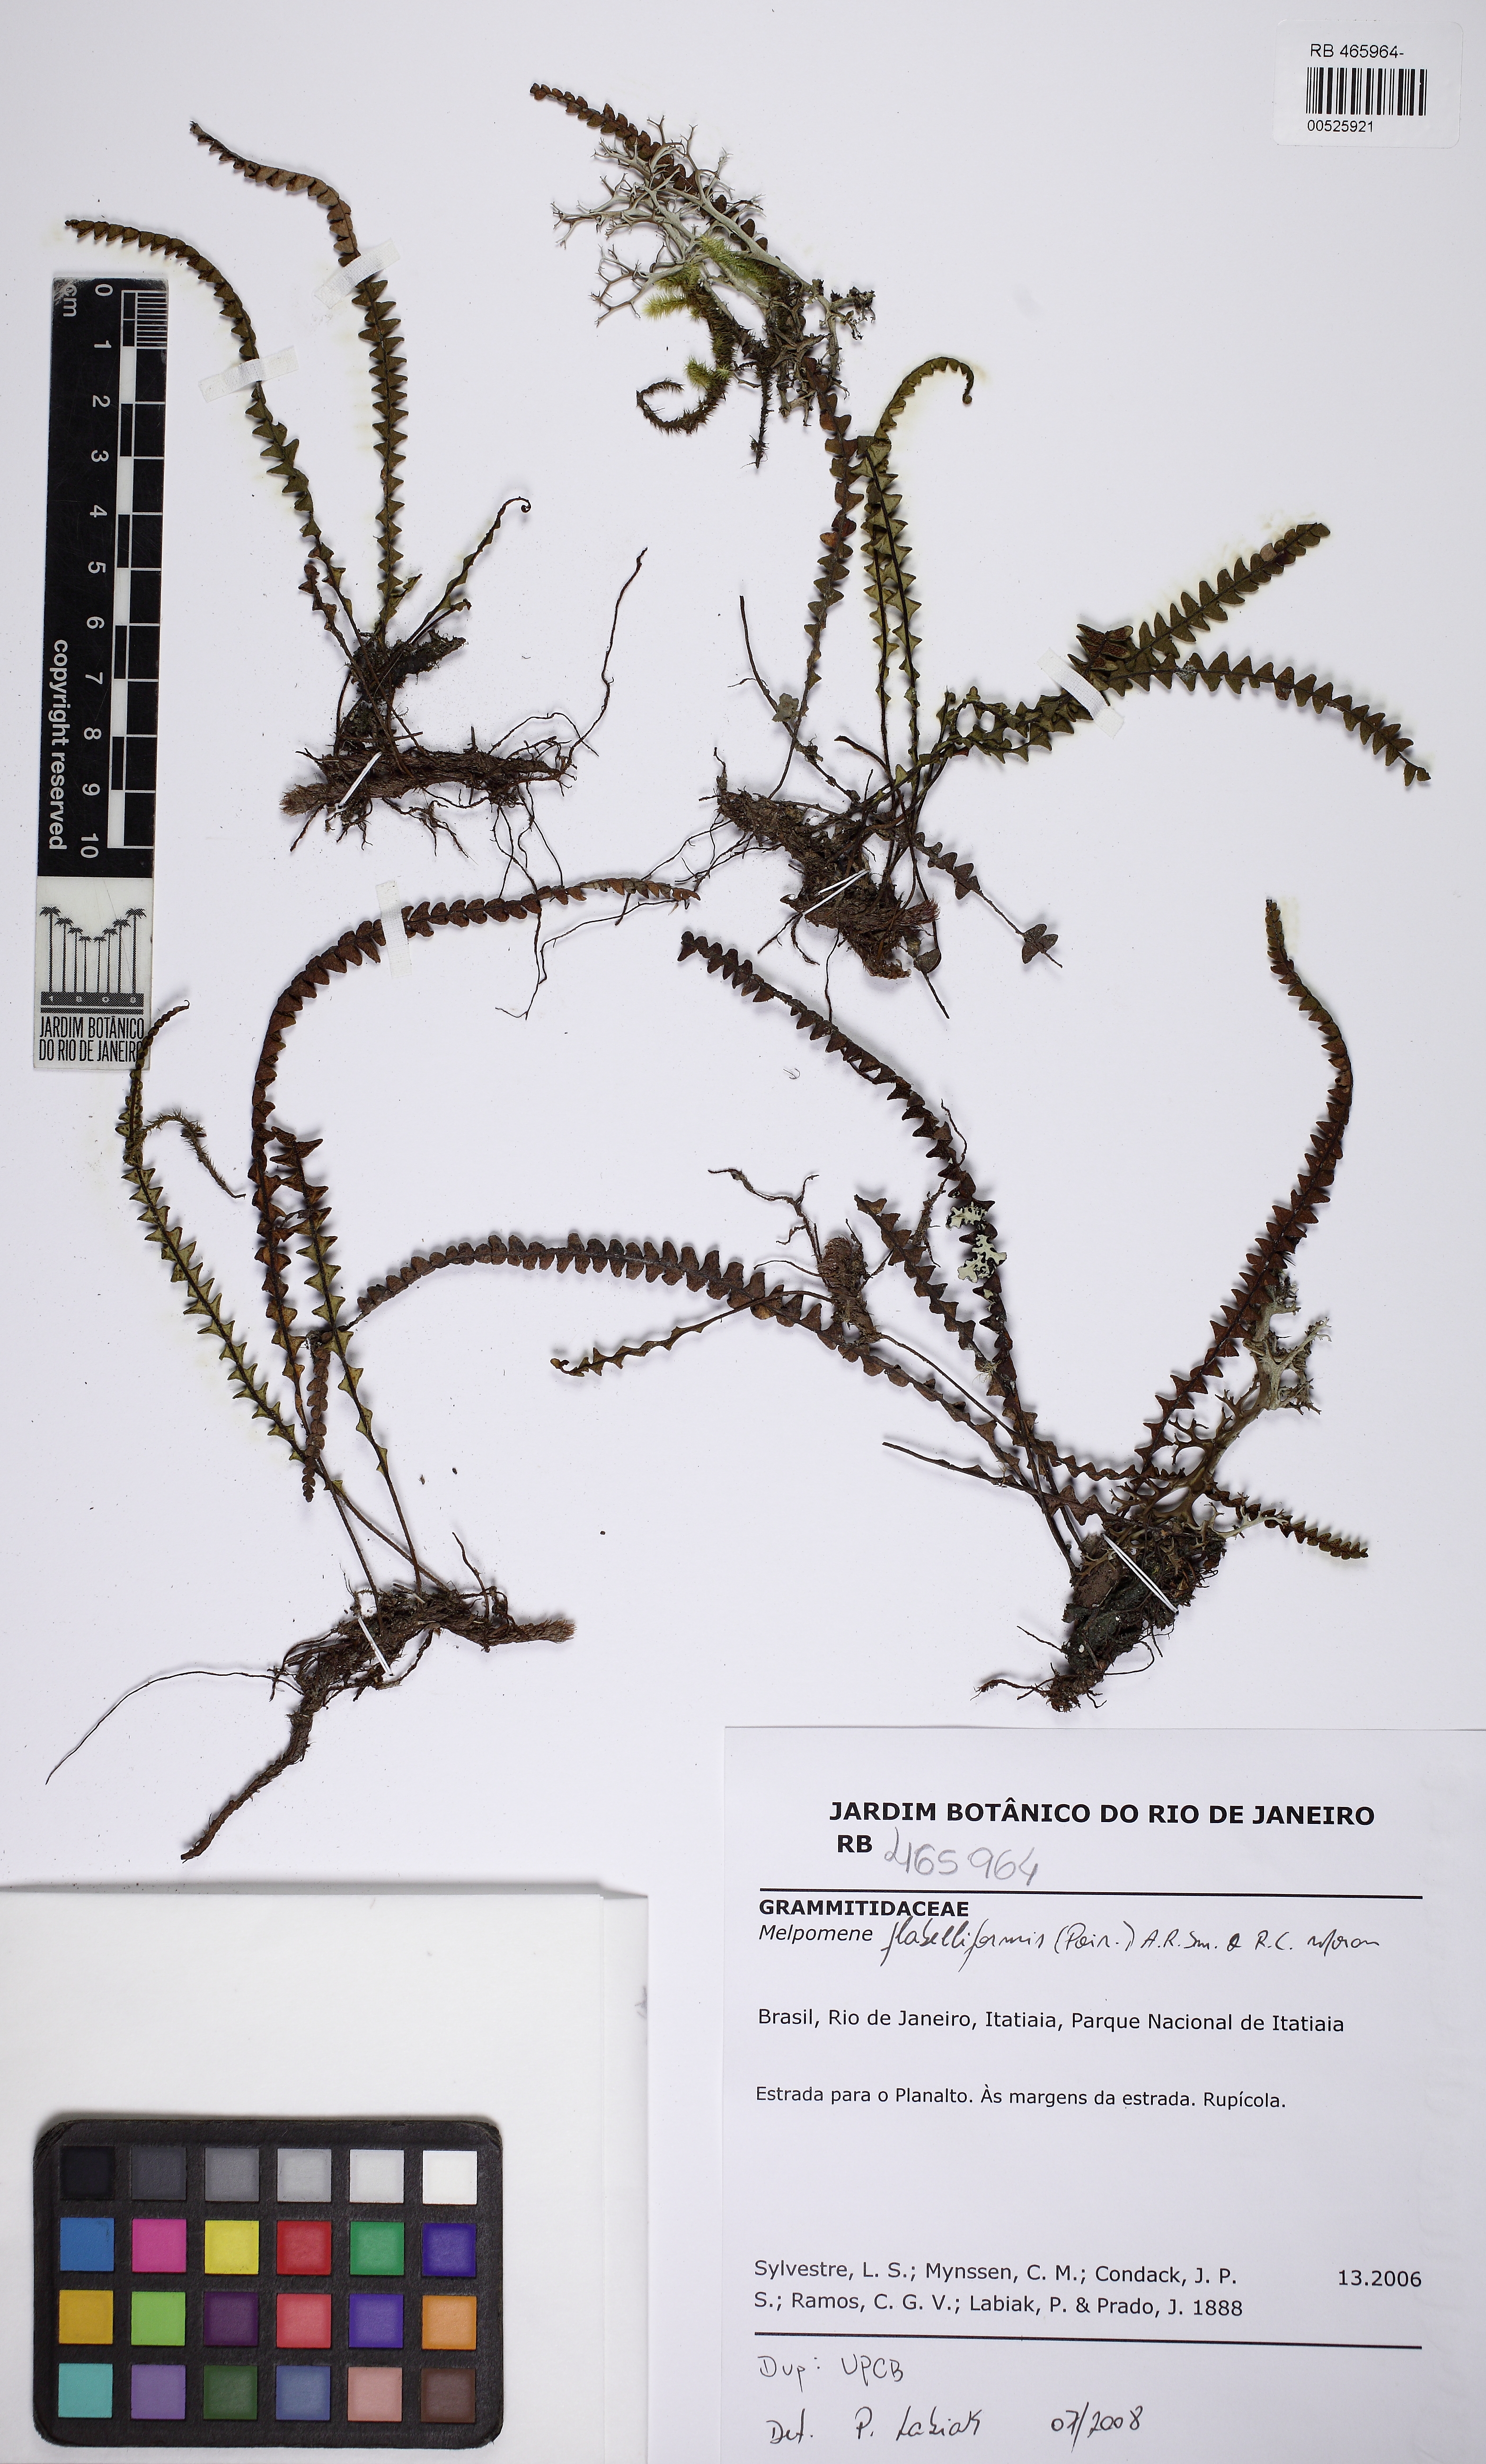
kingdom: Plantae
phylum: Tracheophyta
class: Polypodiopsida
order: Polypodiales
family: Polypodiaceae
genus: Melpomene
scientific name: Melpomene flabelliformis
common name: Fanleaf dwarf polypody
